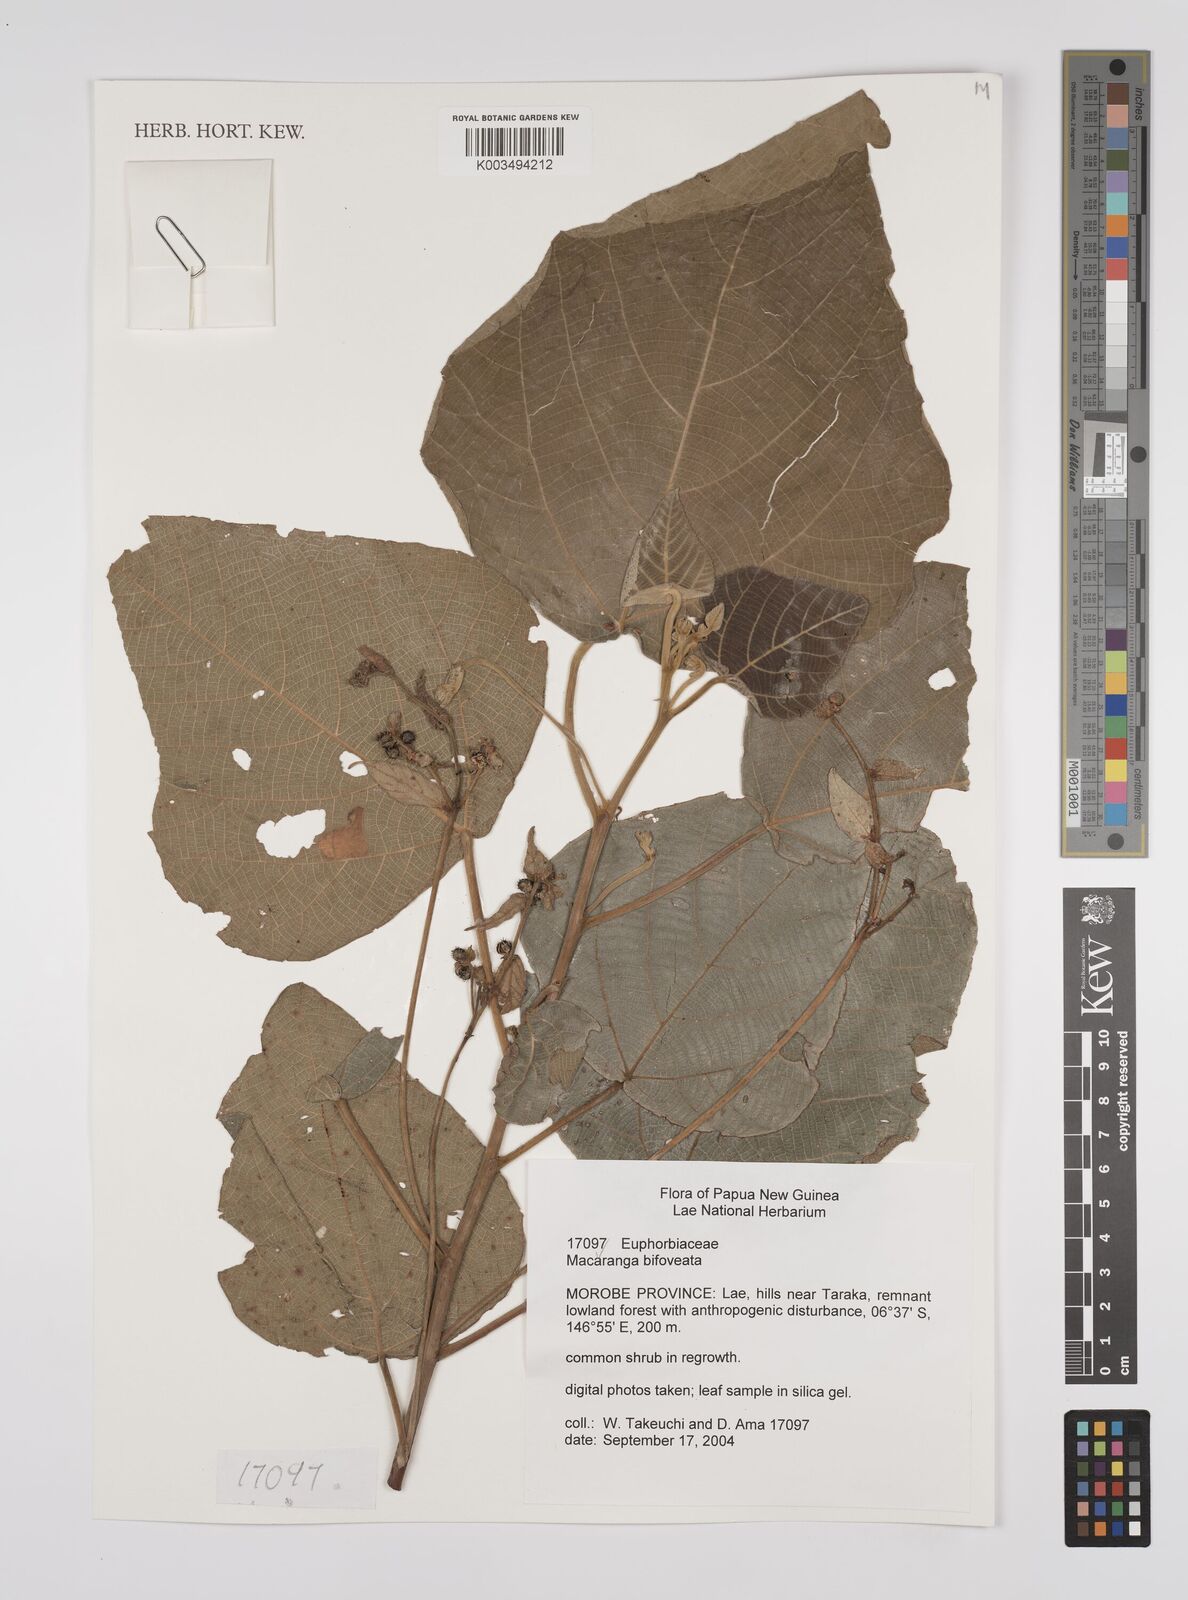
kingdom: Plantae
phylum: Tracheophyta
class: Magnoliopsida
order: Malpighiales
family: Euphorbiaceae
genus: Macaranga
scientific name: Macaranga bifoveata
